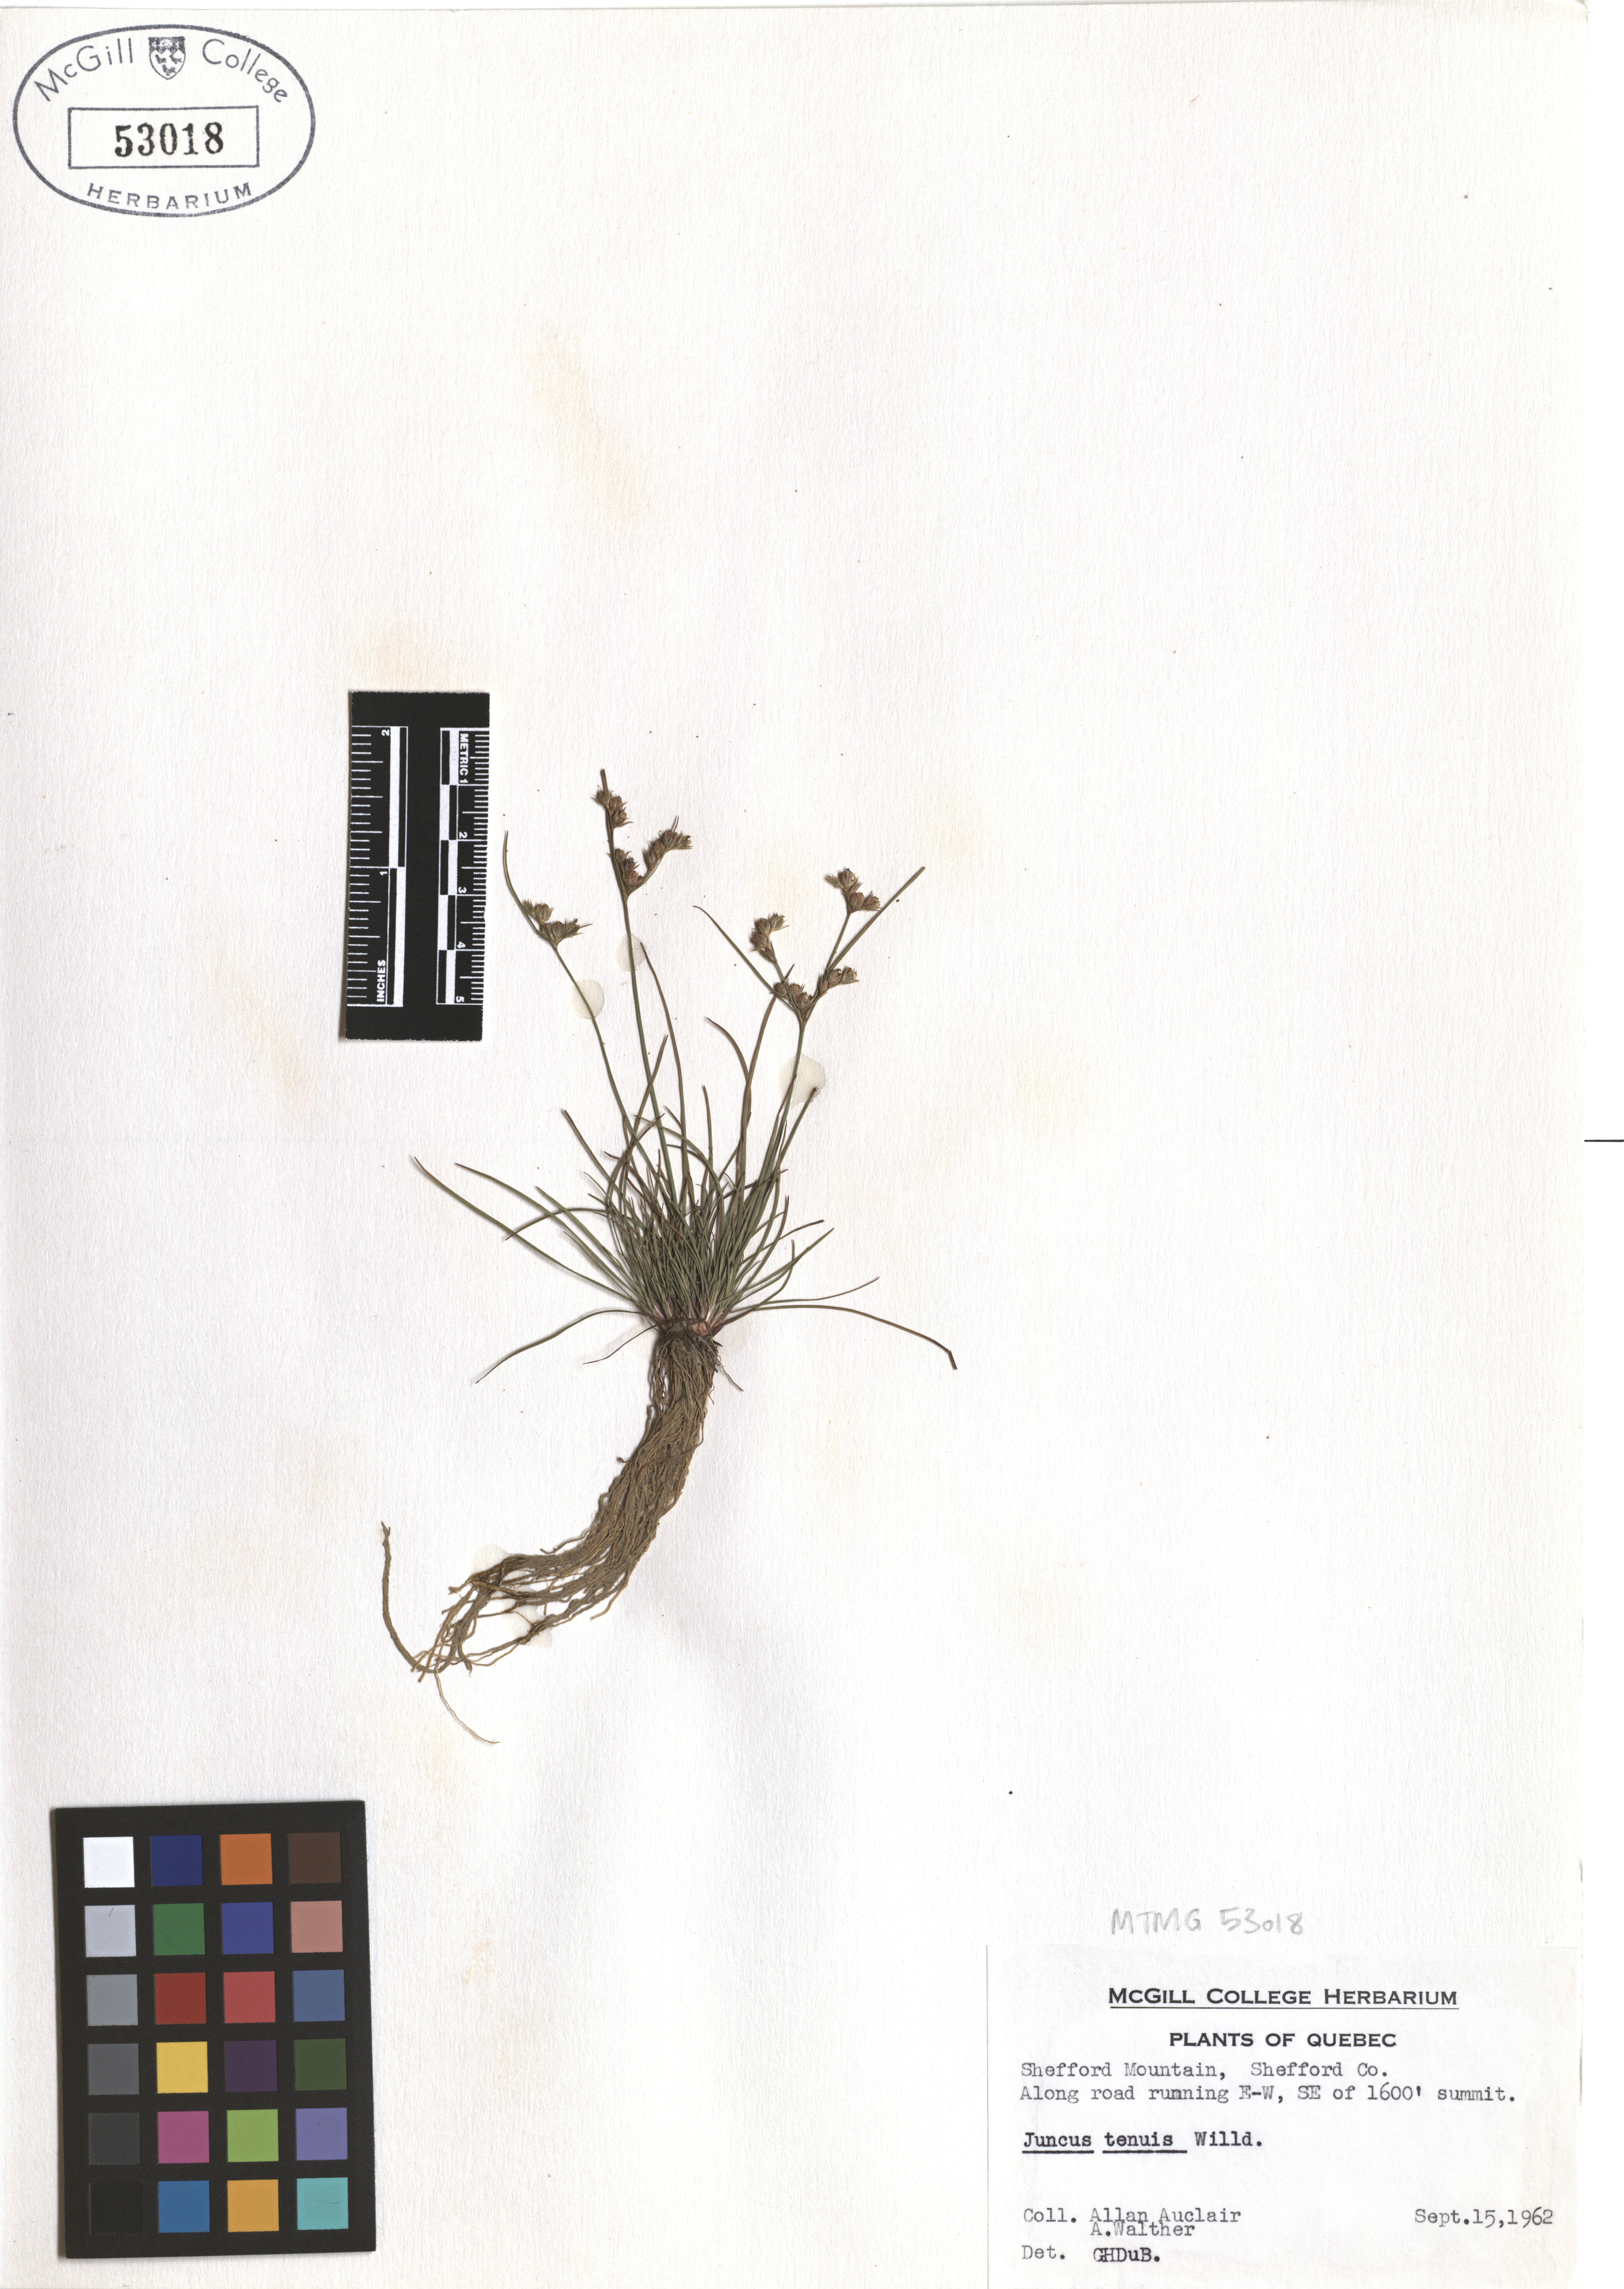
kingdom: Plantae
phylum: Tracheophyta
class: Liliopsida
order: Poales
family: Juncaceae
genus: Juncus
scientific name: Juncus tenuis
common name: Slender rush
